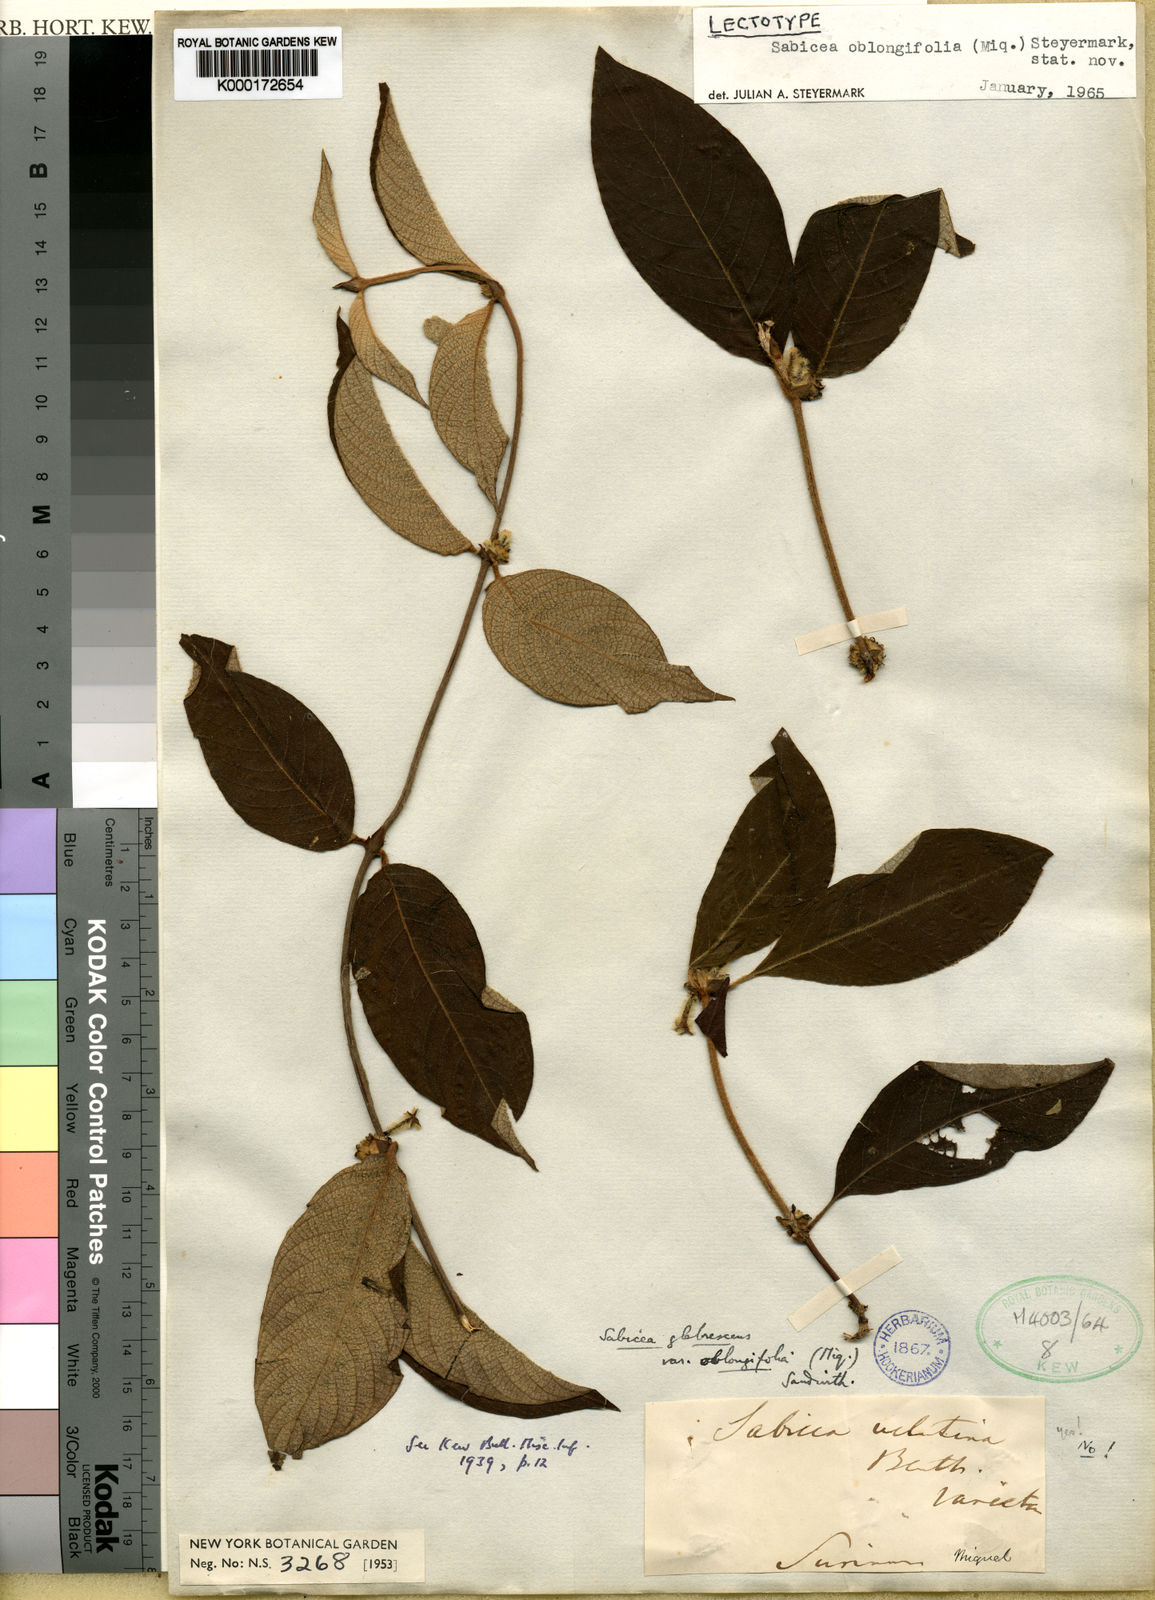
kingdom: Plantae
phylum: Tracheophyta
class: Magnoliopsida
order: Gentianales
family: Rubiaceae
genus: Sabicea
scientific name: Sabicea velutina
